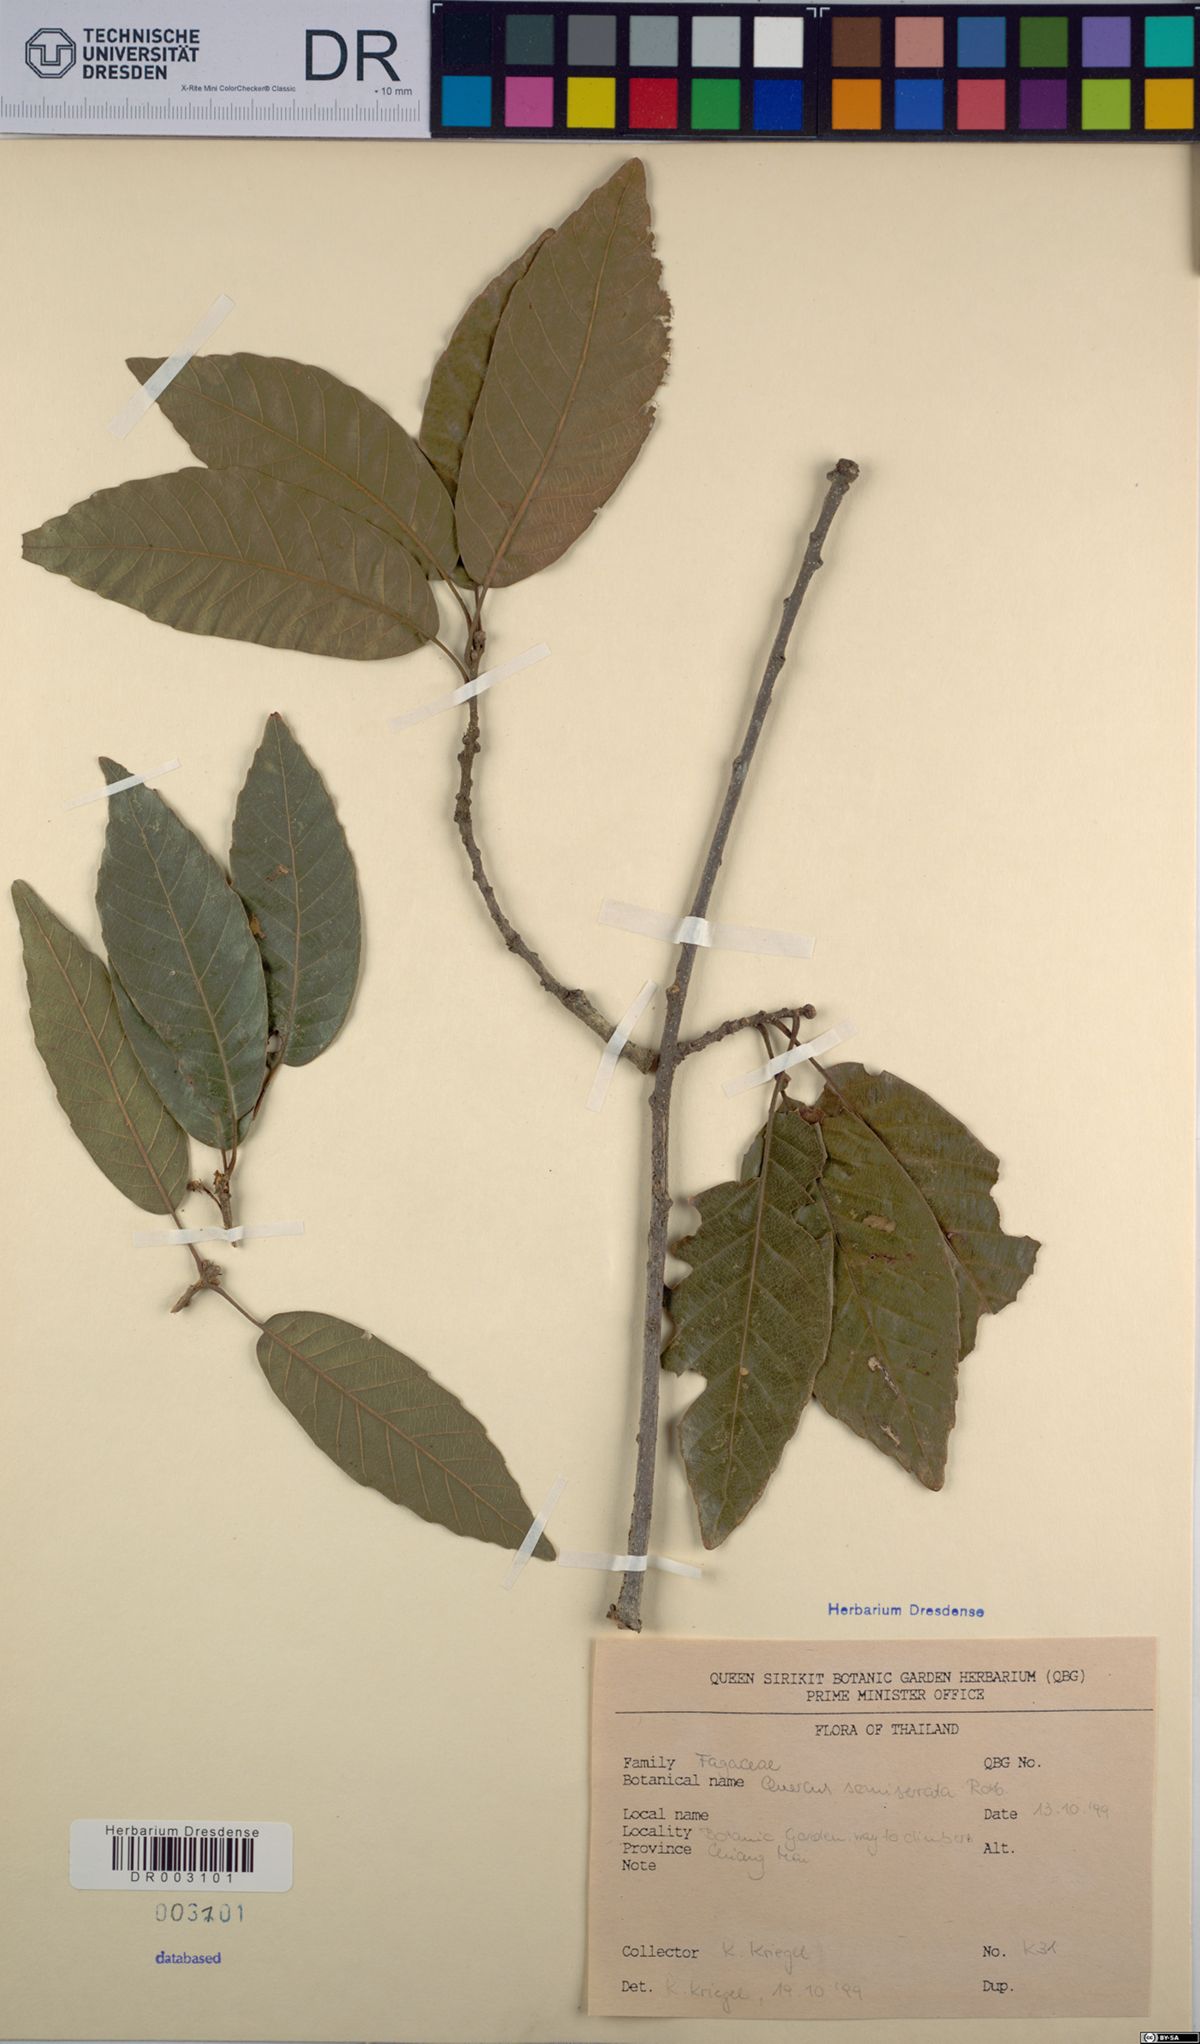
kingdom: Plantae
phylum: Tracheophyta
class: Magnoliopsida
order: Fagales
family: Fagaceae
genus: Quercus
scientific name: Quercus semiserrata
